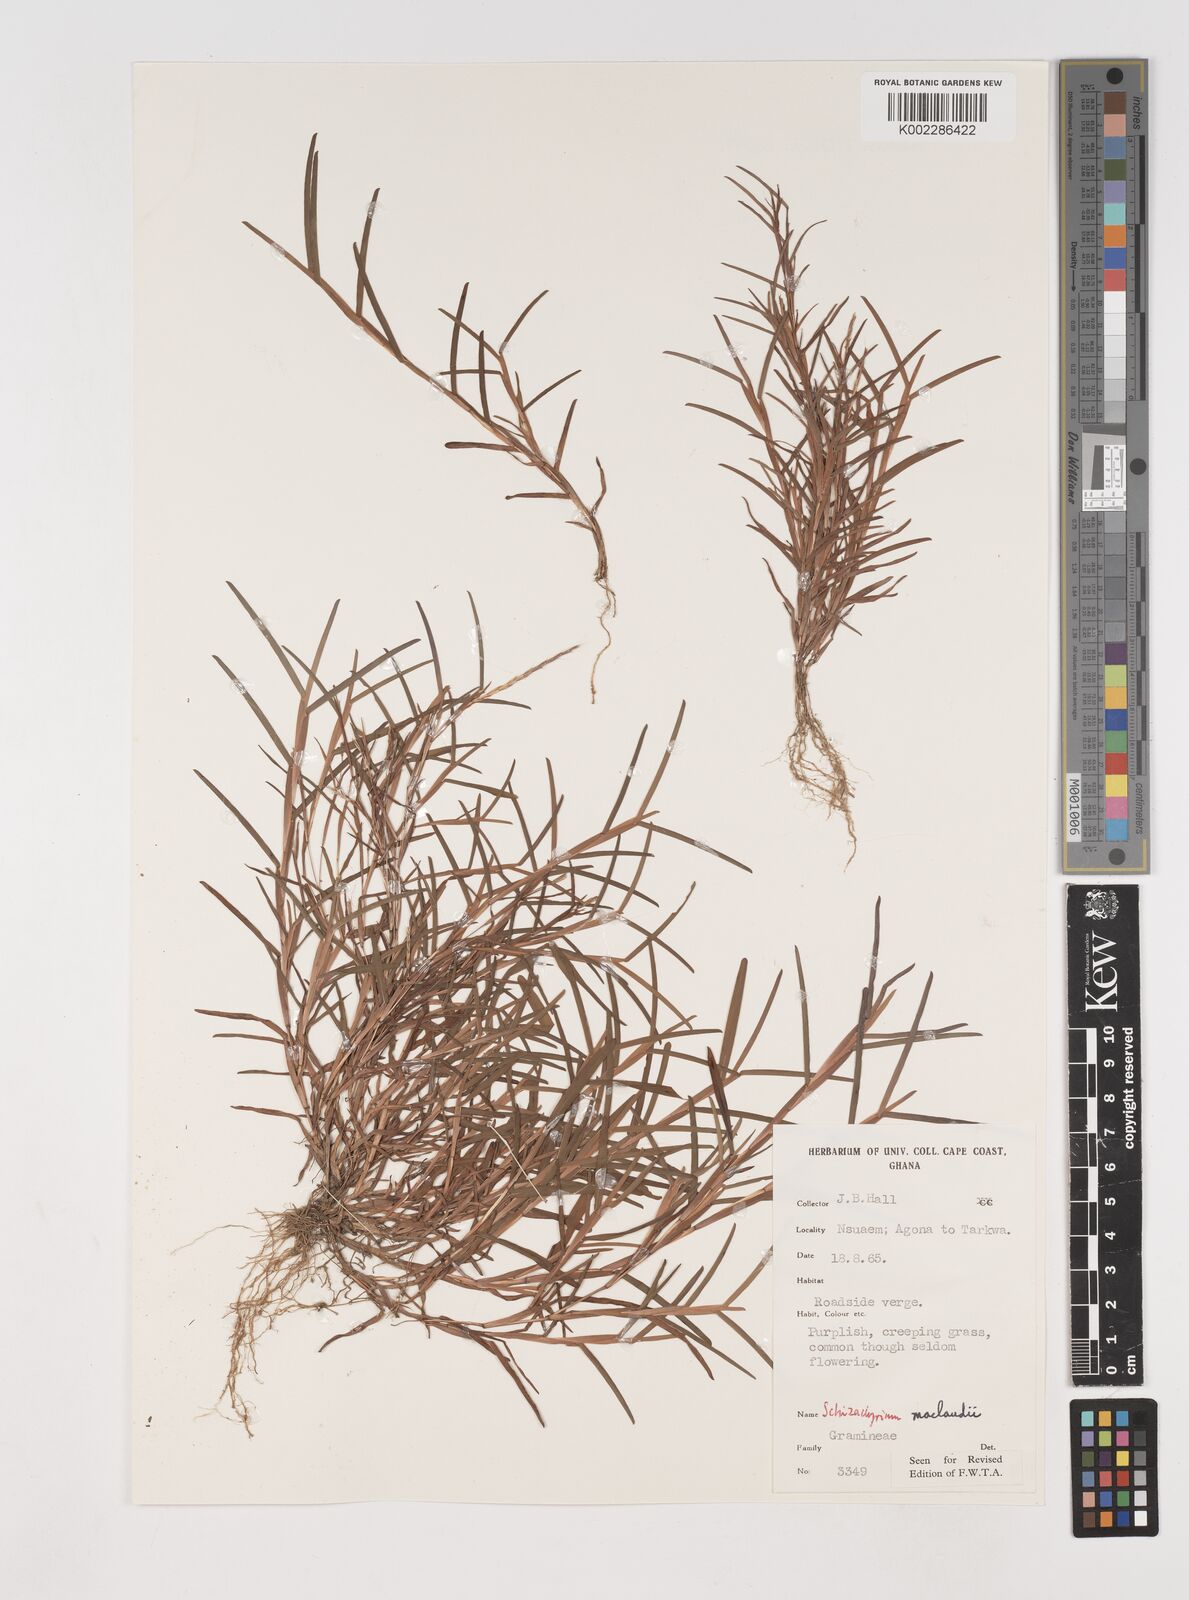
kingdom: Plantae
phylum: Tracheophyta
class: Liliopsida
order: Poales
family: Poaceae
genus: Schizachyrium
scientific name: Schizachyrium maclaudii
